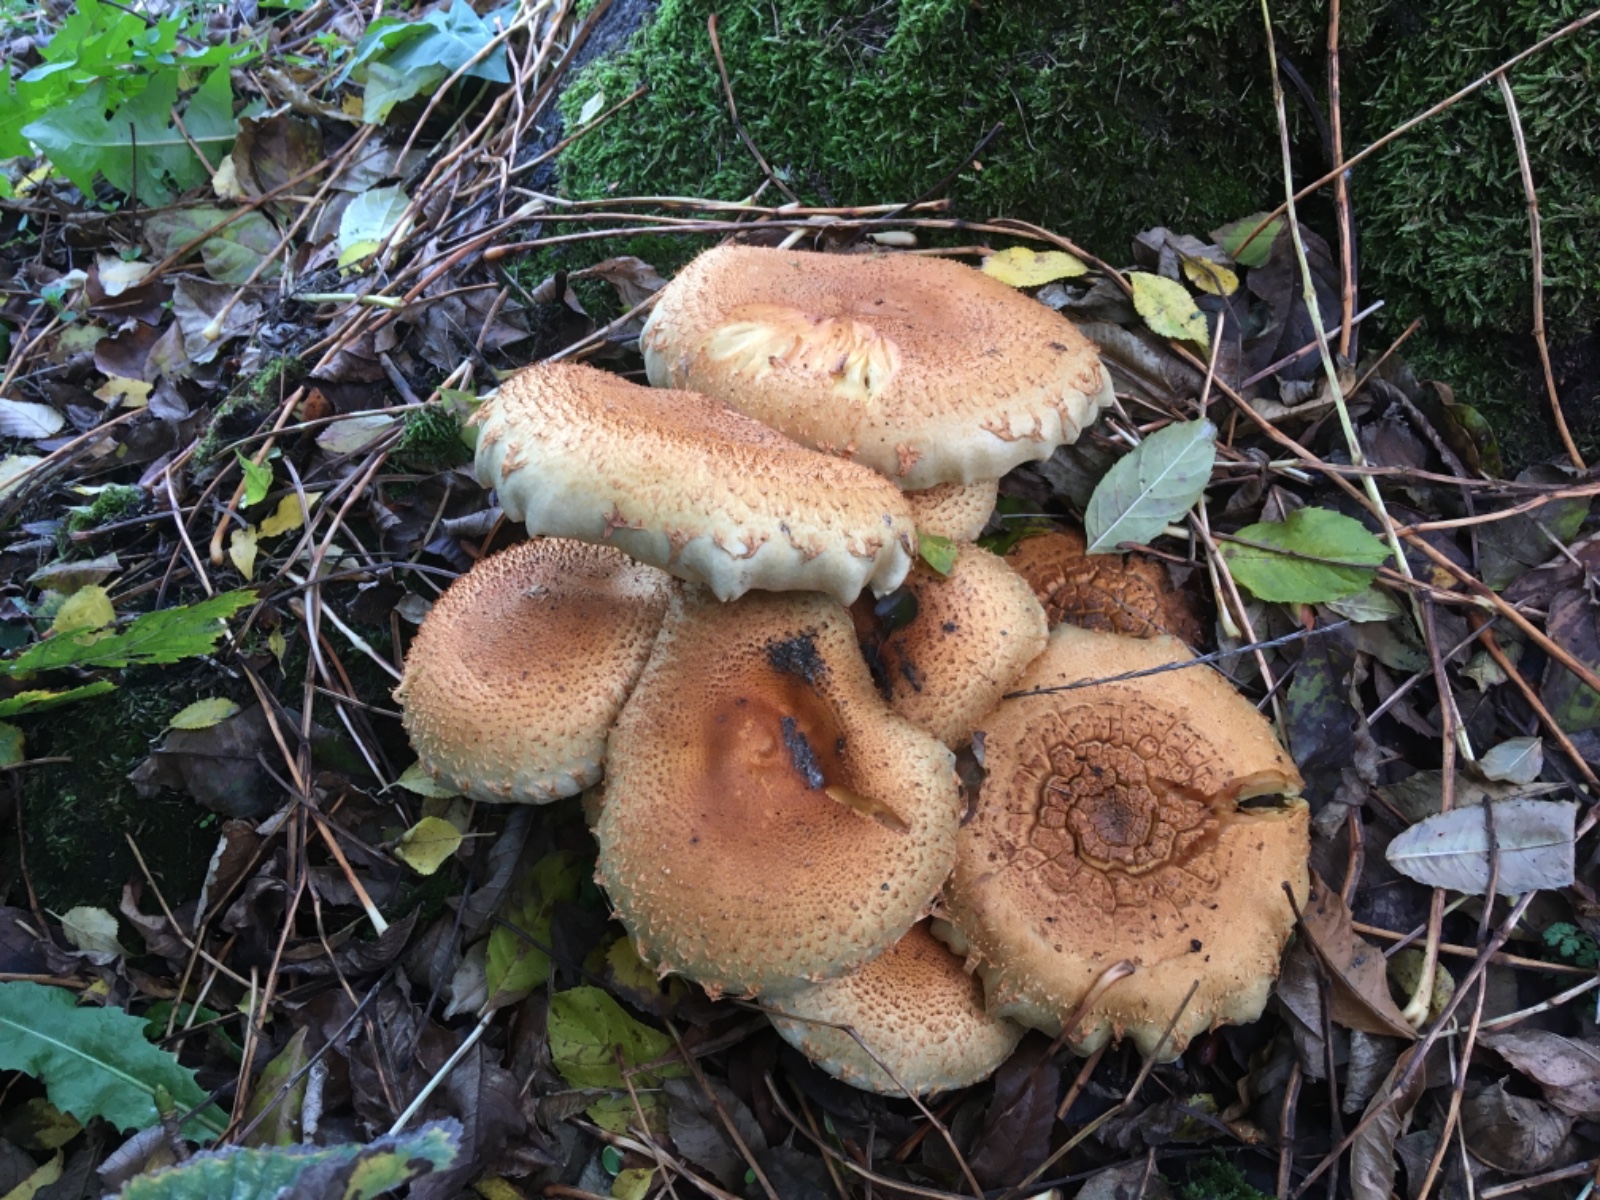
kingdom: Fungi
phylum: Basidiomycota
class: Agaricomycetes
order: Agaricales
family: Strophariaceae
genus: Pholiota
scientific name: Pholiota squarrosa
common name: krumskællet skælhat
